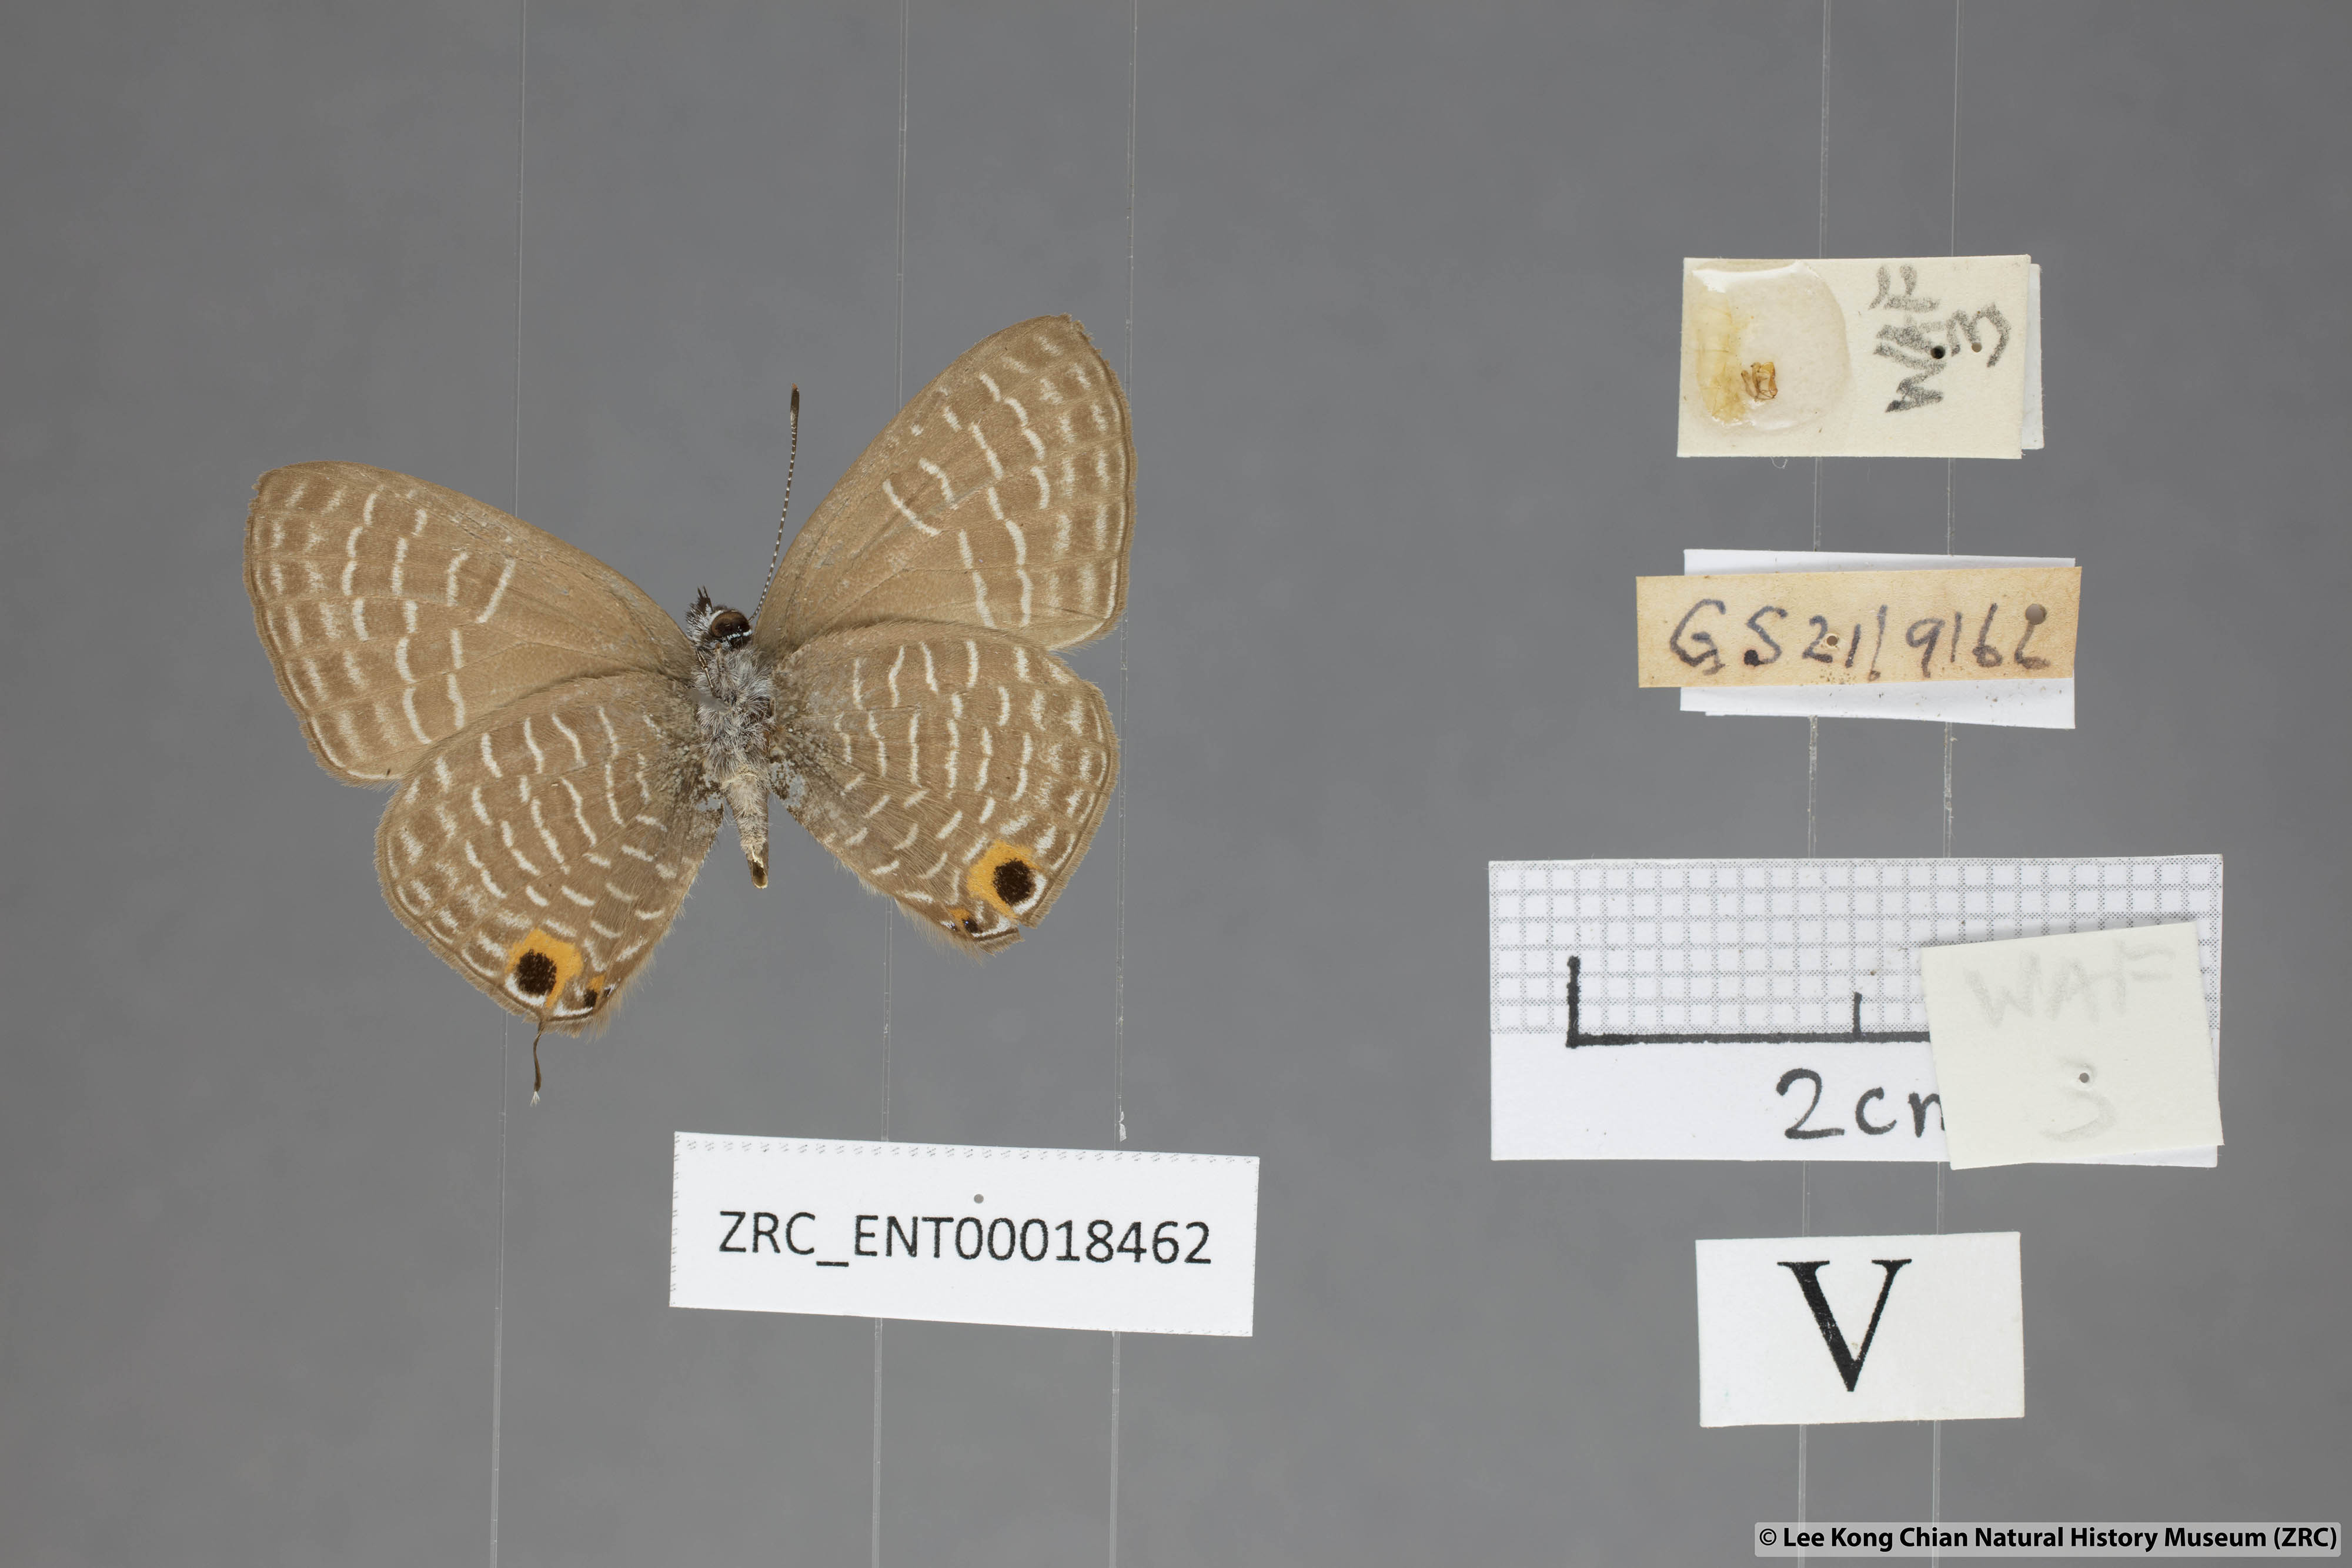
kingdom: Animalia
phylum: Arthropoda
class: Insecta
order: Lepidoptera
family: Lycaenidae
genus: Nacaduba
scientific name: Nacaduba solta
